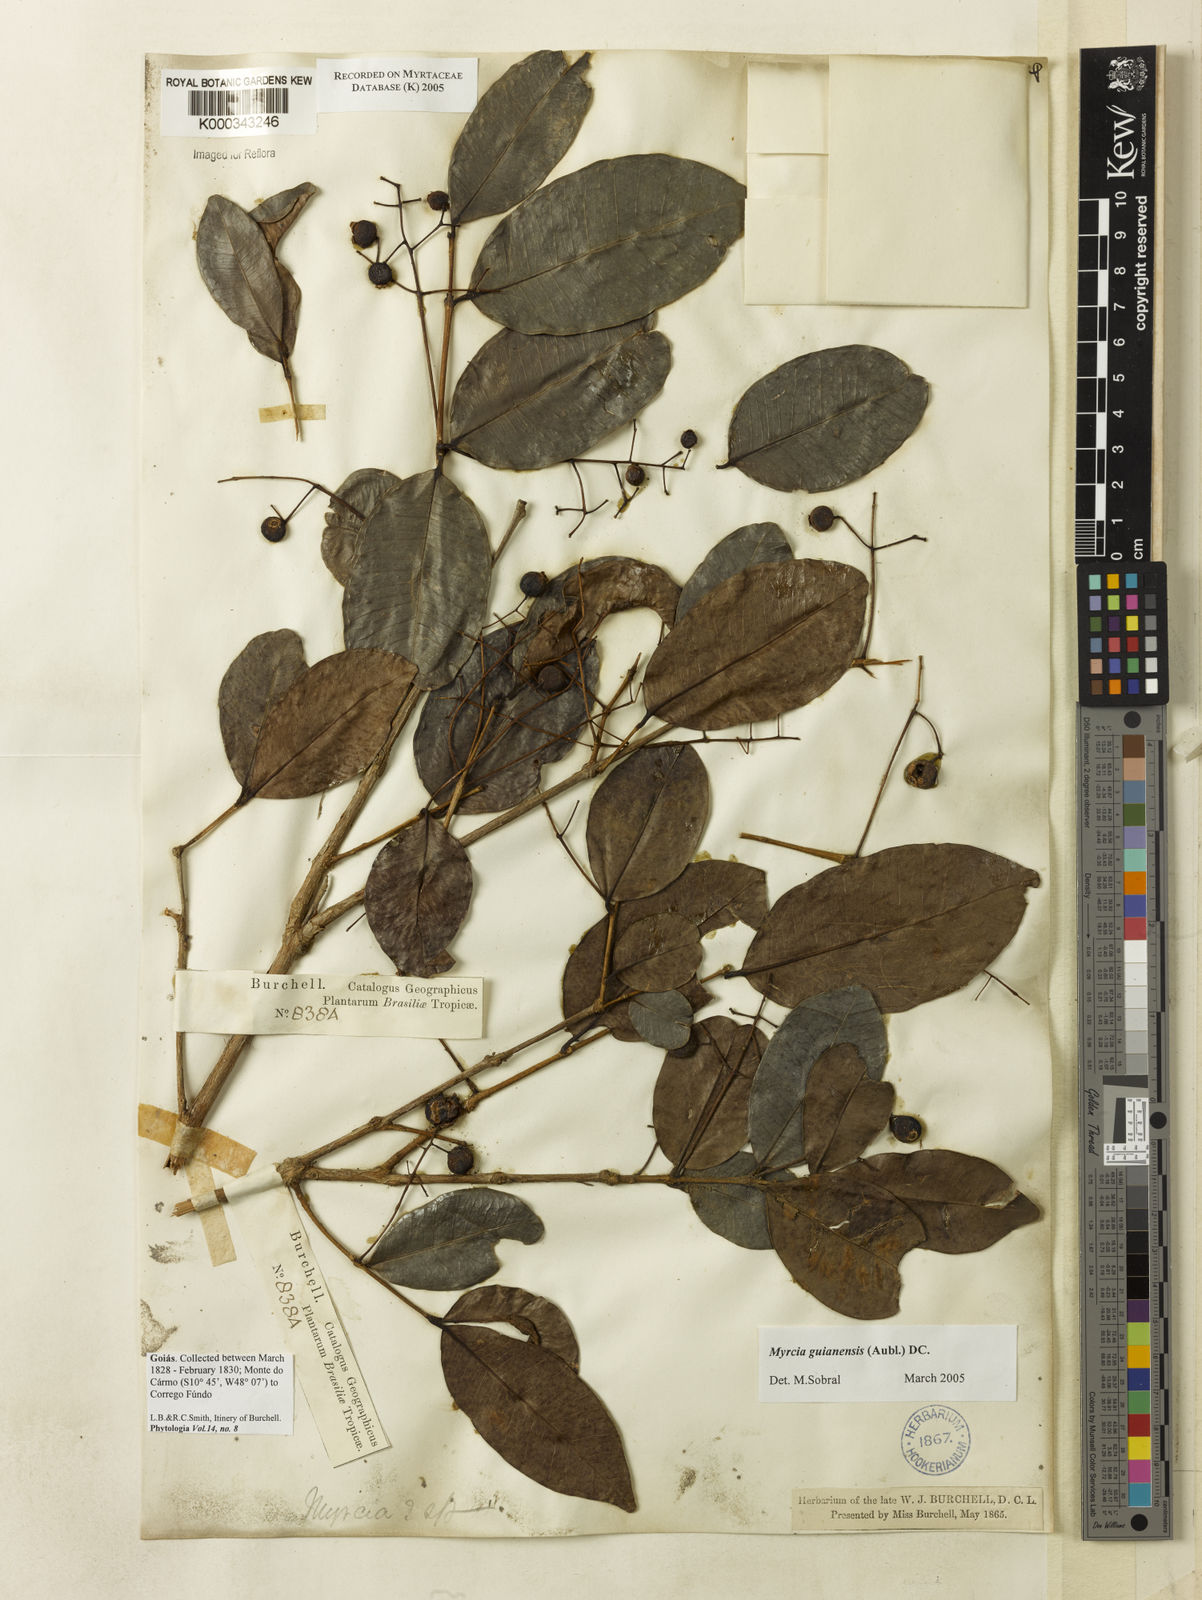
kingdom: Plantae
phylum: Tracheophyta
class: Magnoliopsida
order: Myrtales
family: Myrtaceae
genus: Myrcia
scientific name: Myrcia guianensis
